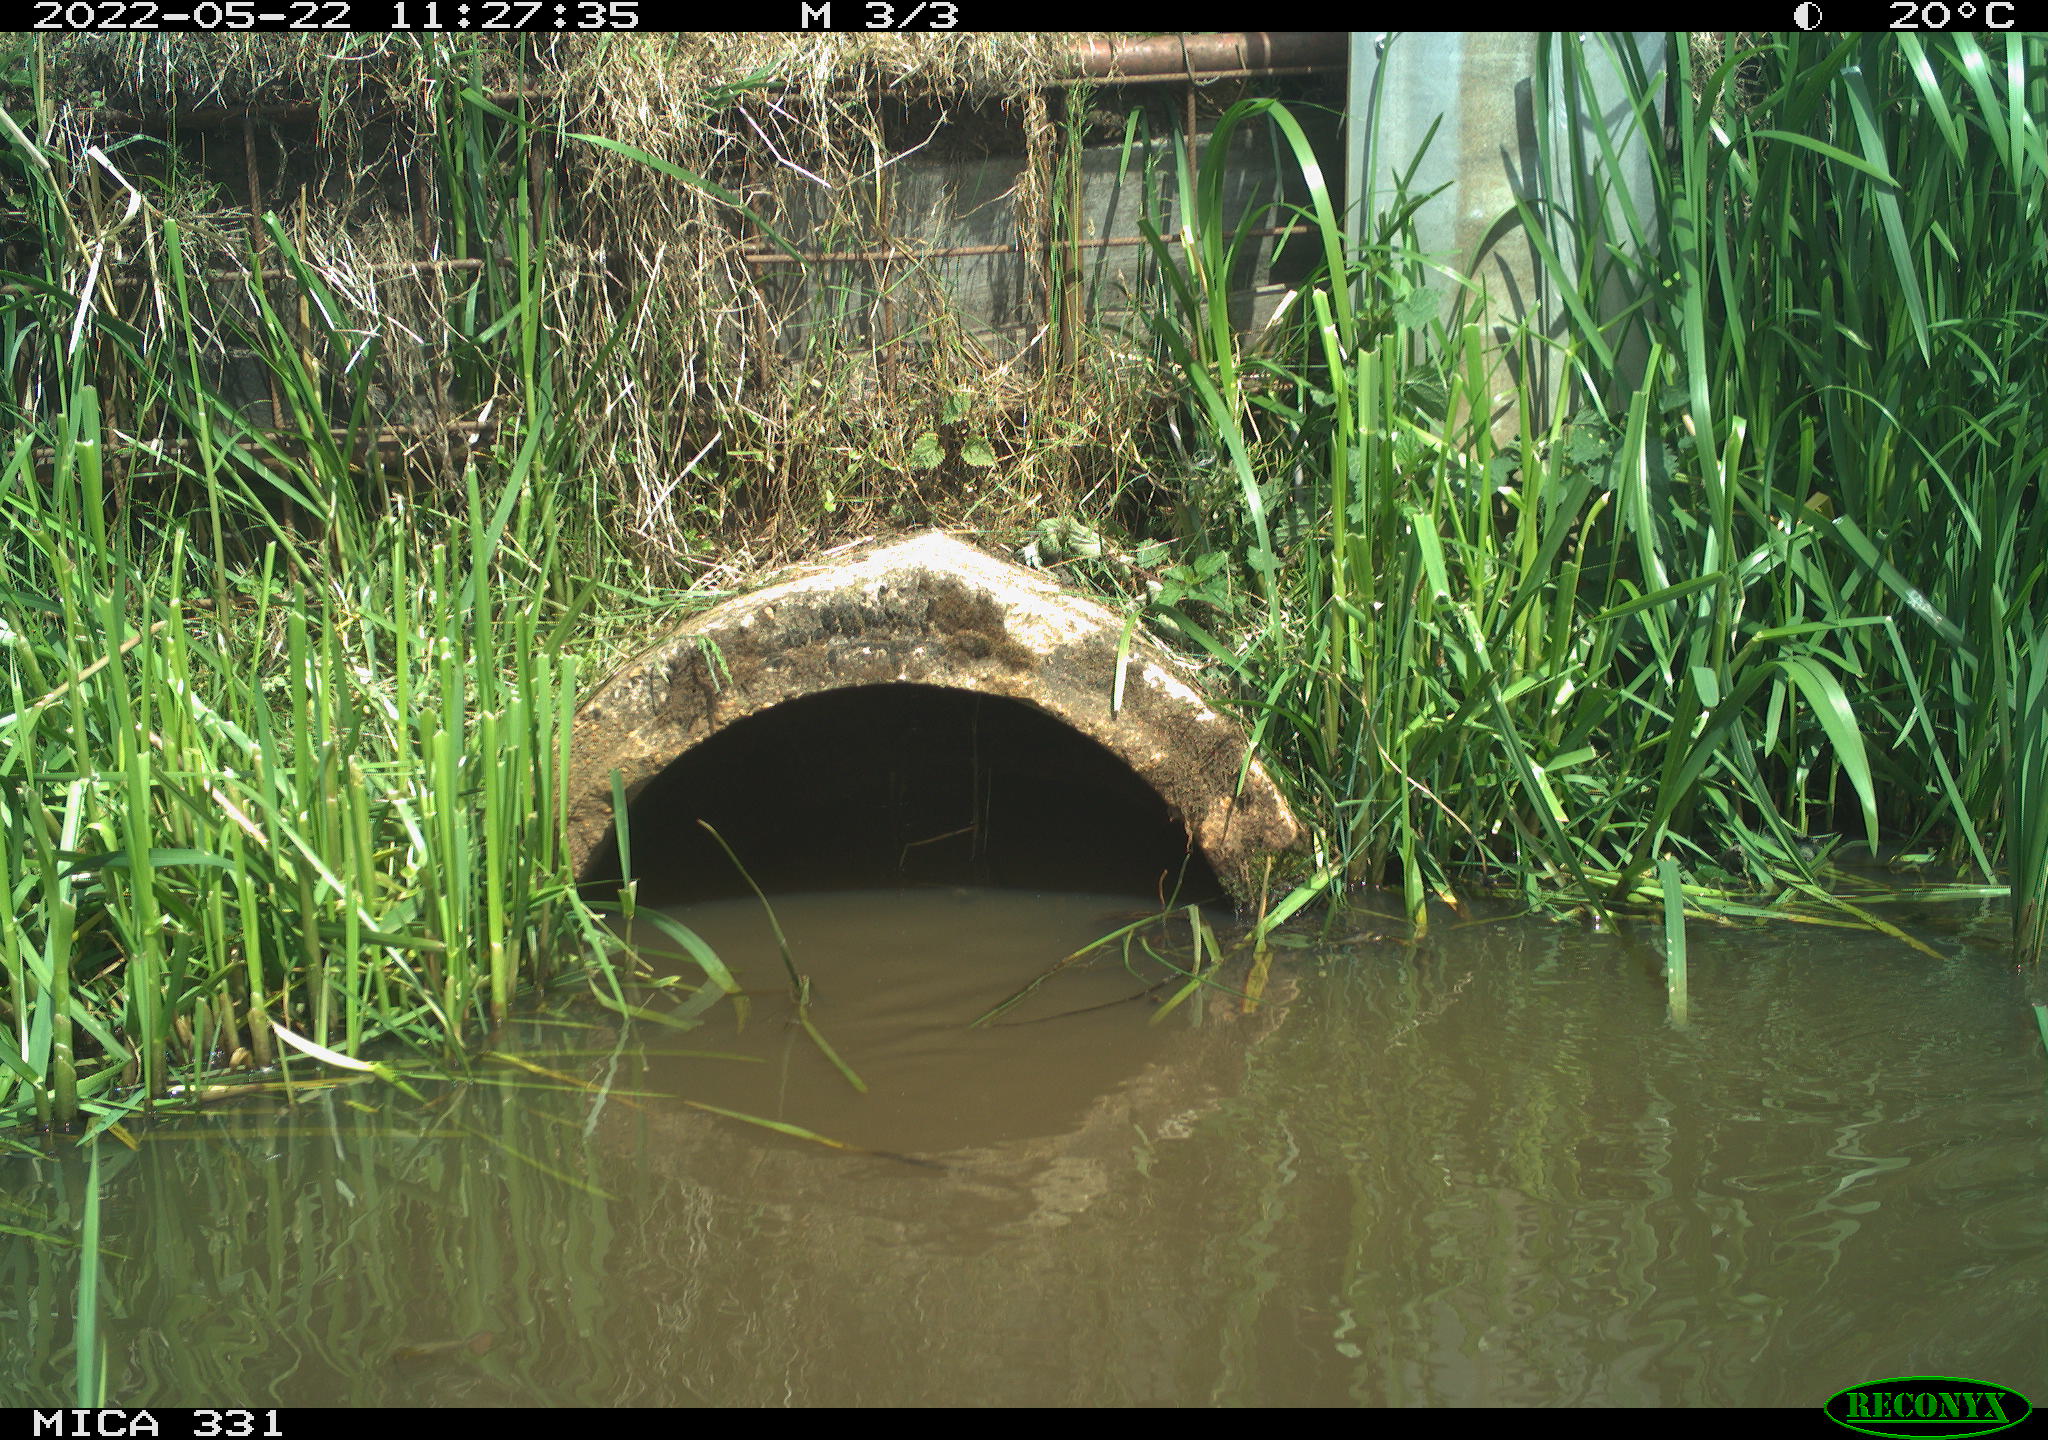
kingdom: Animalia
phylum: Chordata
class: Aves
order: Gruiformes
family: Rallidae
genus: Fulica
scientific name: Fulica atra
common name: Eurasian coot
